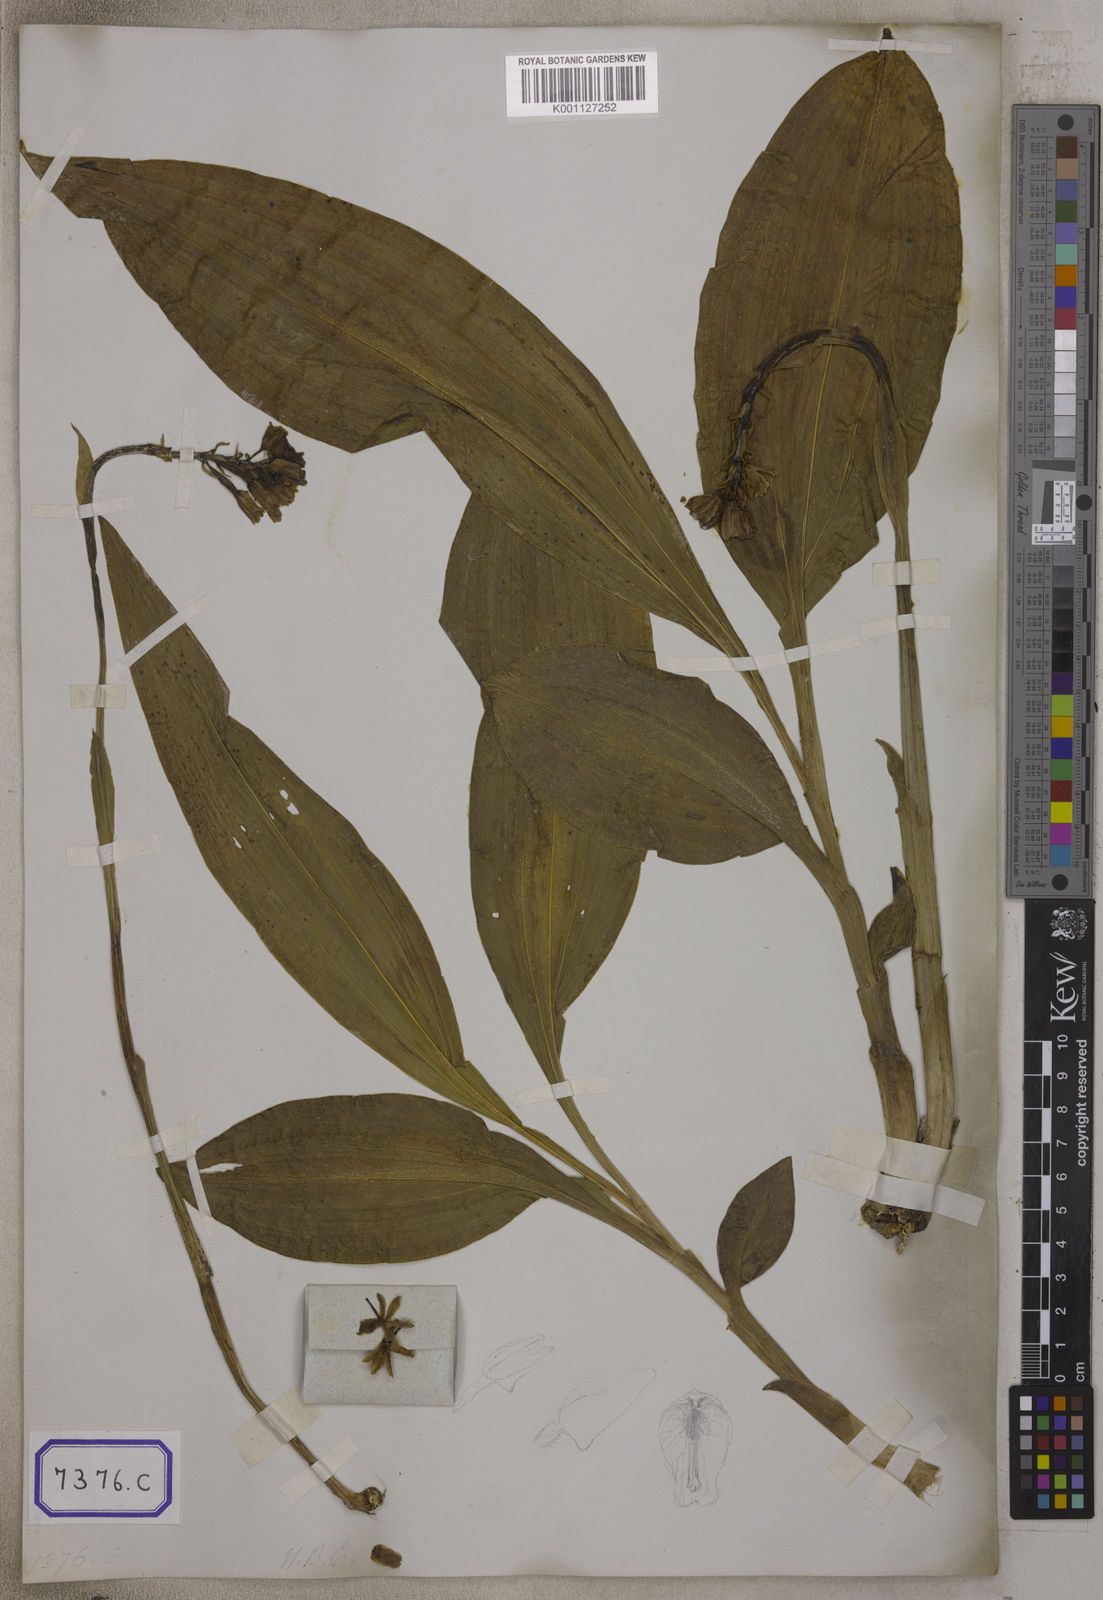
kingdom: Plantae
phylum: Tracheophyta
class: Liliopsida
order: Asparagales
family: Orchidaceae
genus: Eulophia
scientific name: Eulophia recurva
